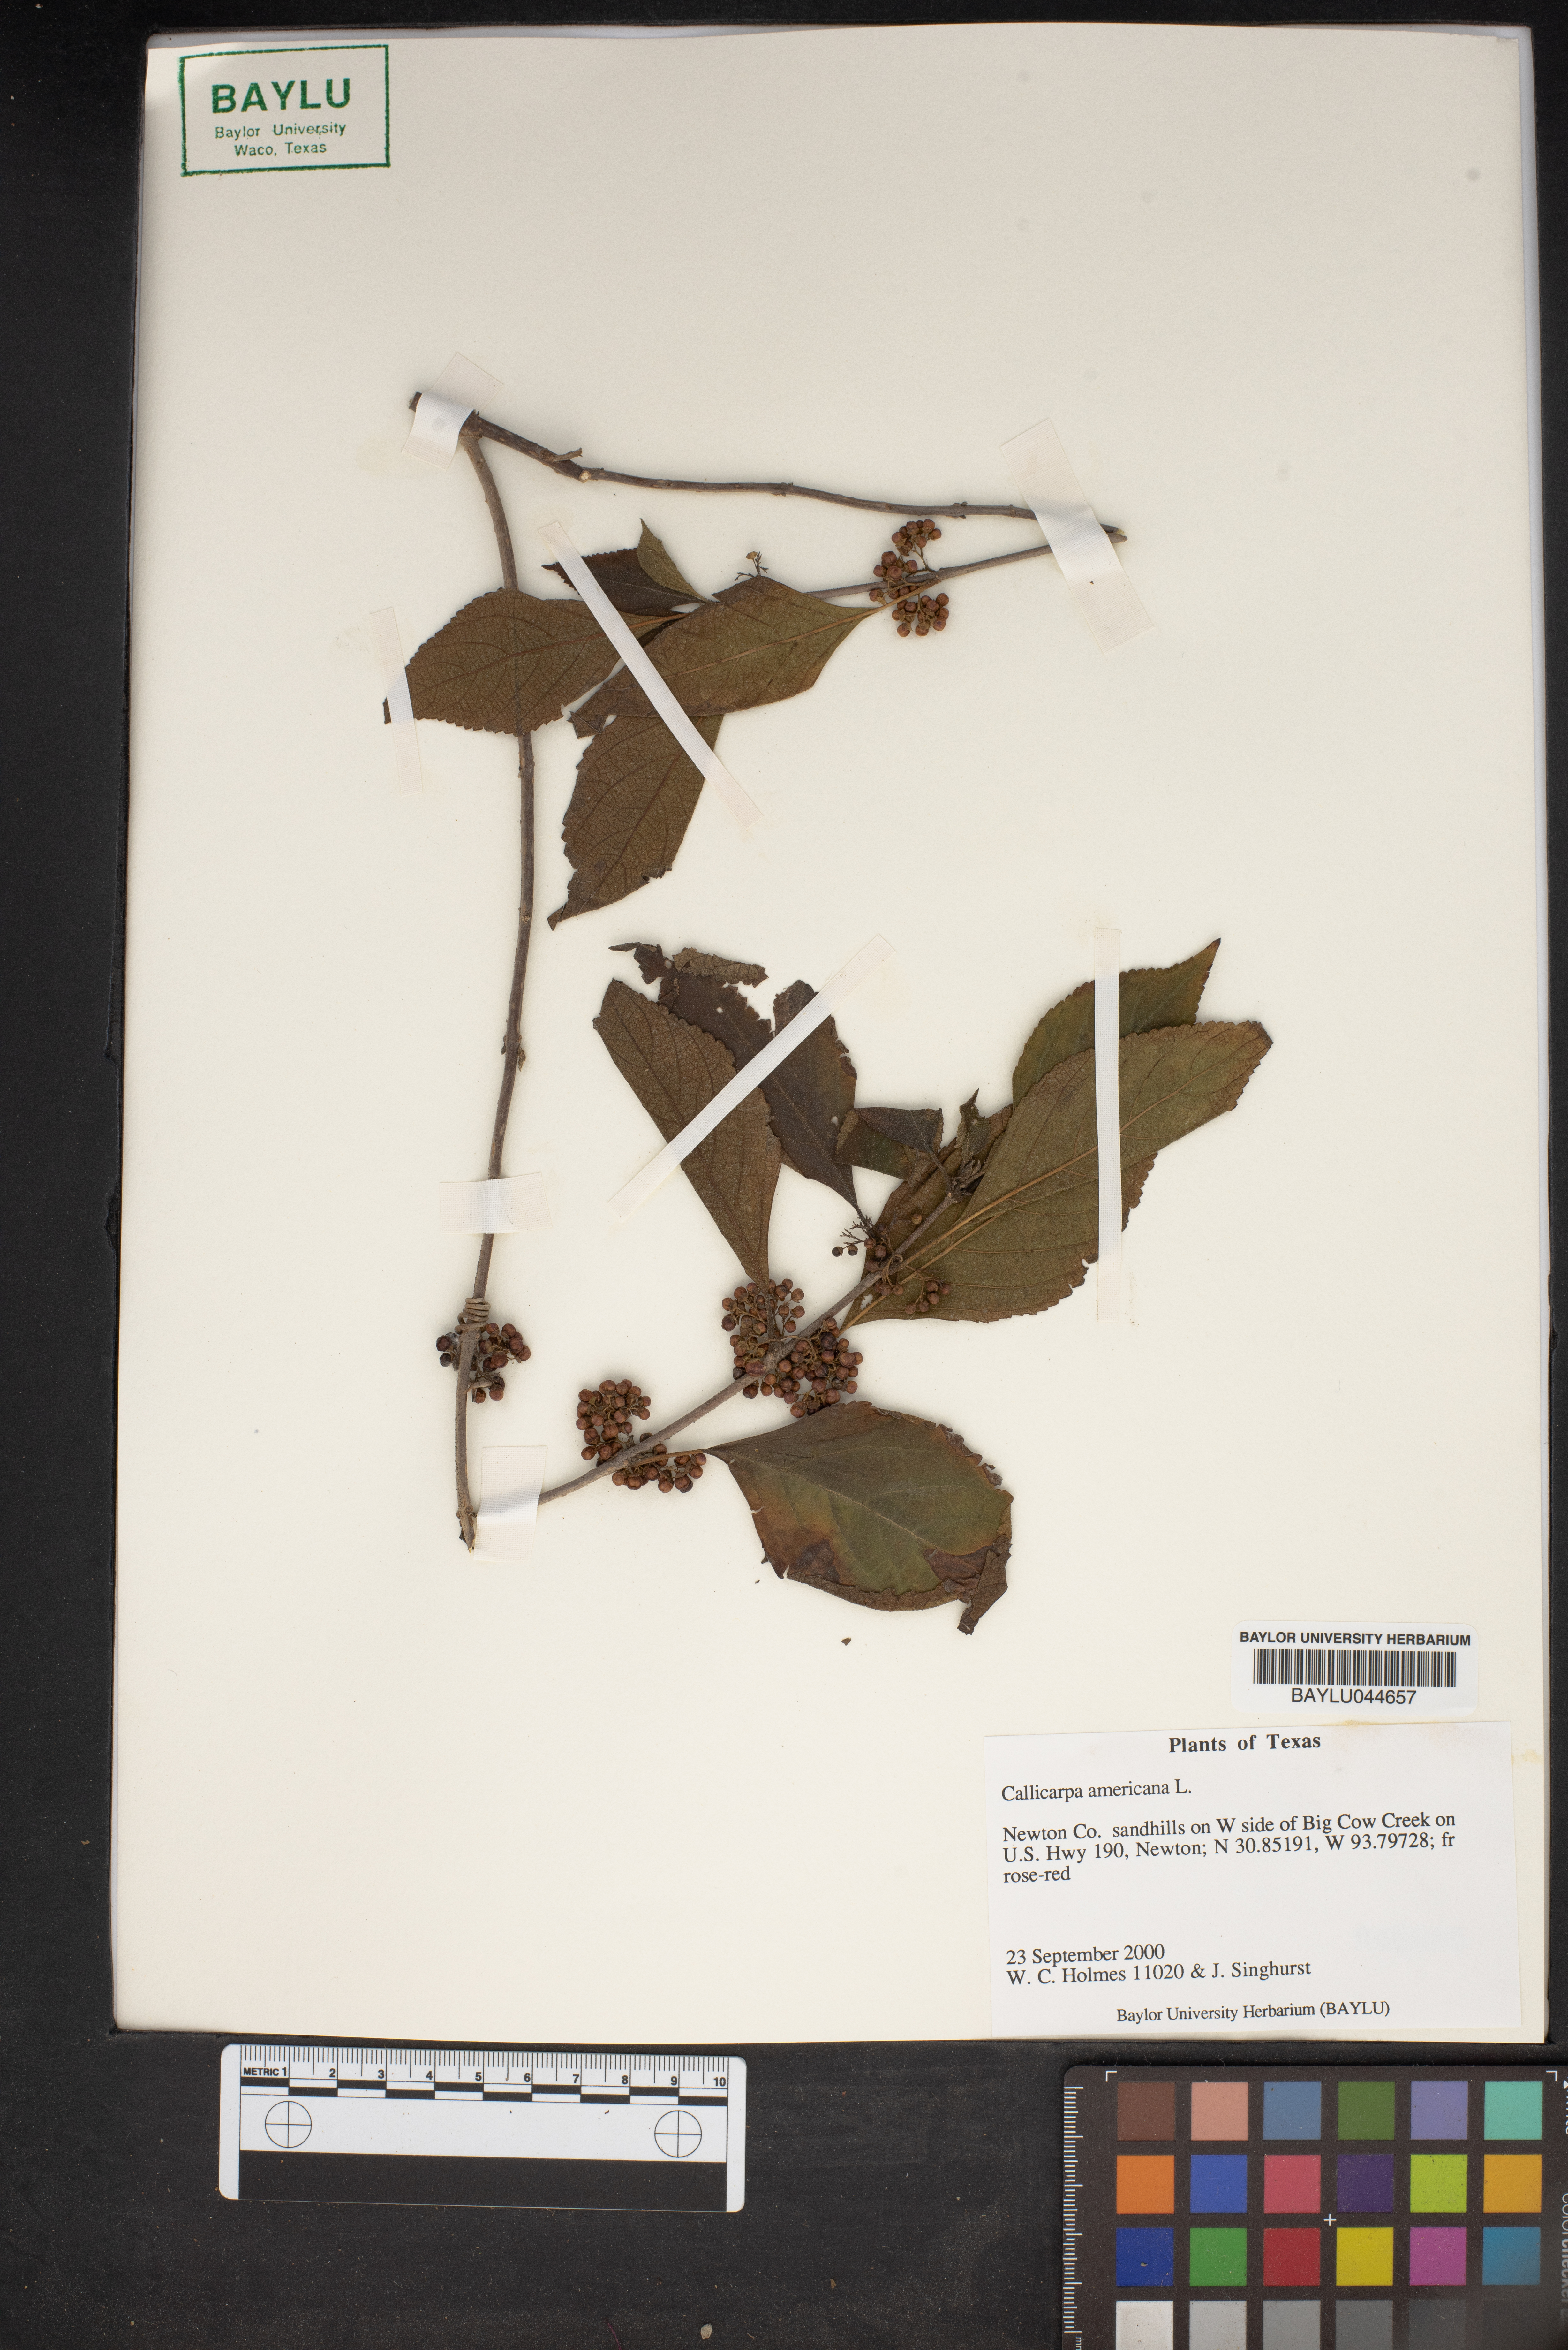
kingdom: Plantae
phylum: Tracheophyta
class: Magnoliopsida
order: Lamiales
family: Lamiaceae
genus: Callicarpa
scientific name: Callicarpa americana
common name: American beautyberry
